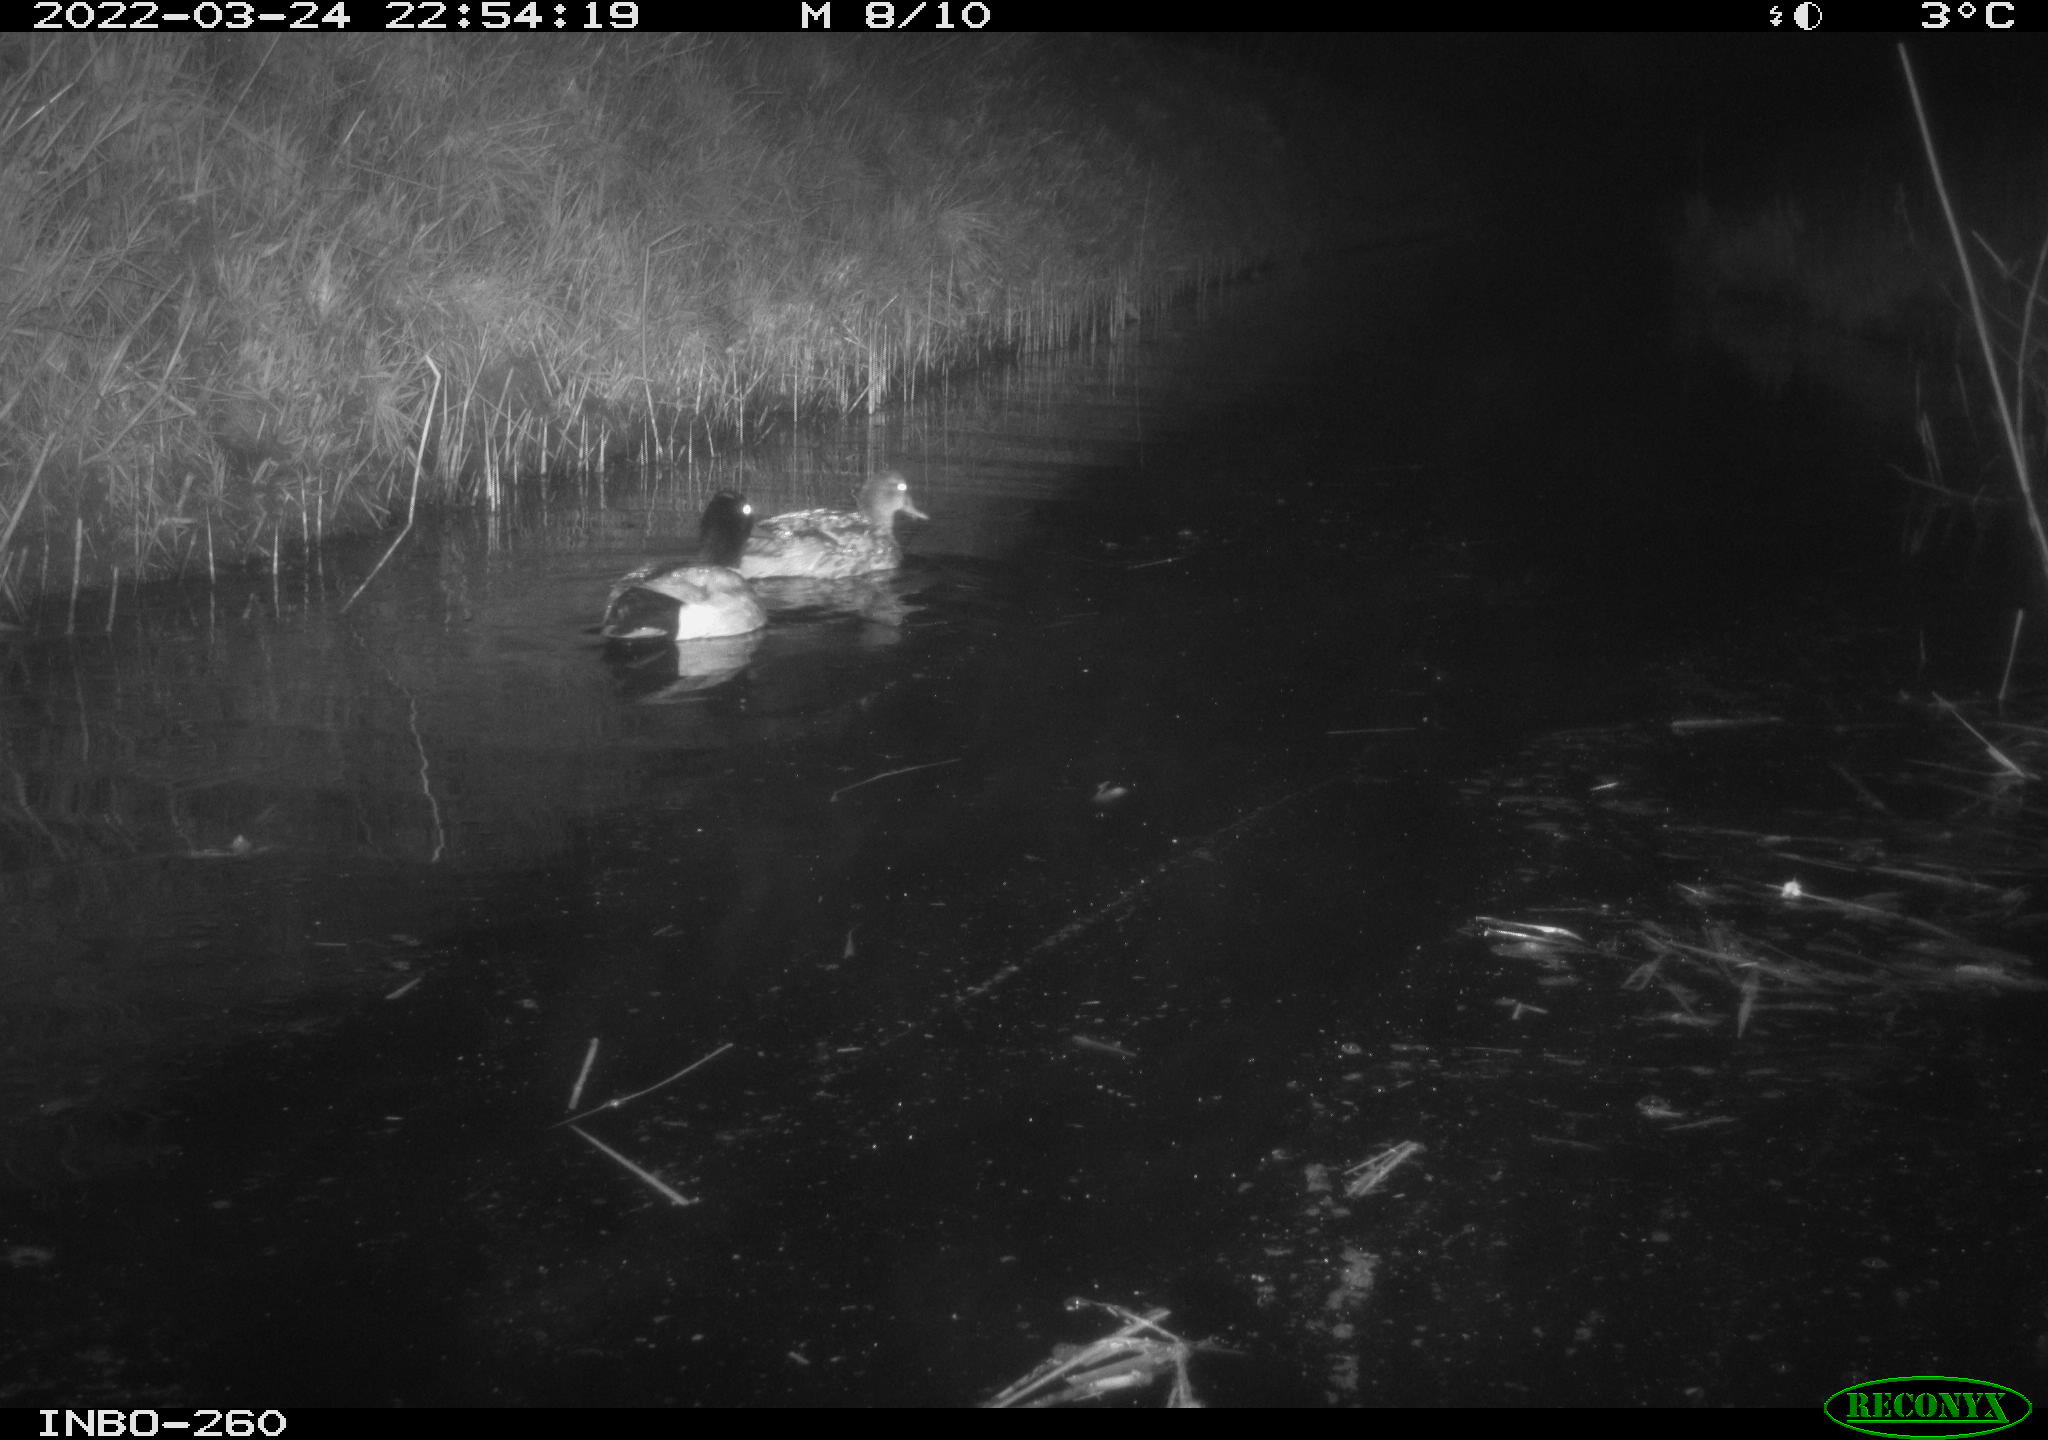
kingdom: Animalia
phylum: Chordata
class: Aves
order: Anseriformes
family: Anatidae
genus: Anas
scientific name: Anas platyrhynchos
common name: Mallard
